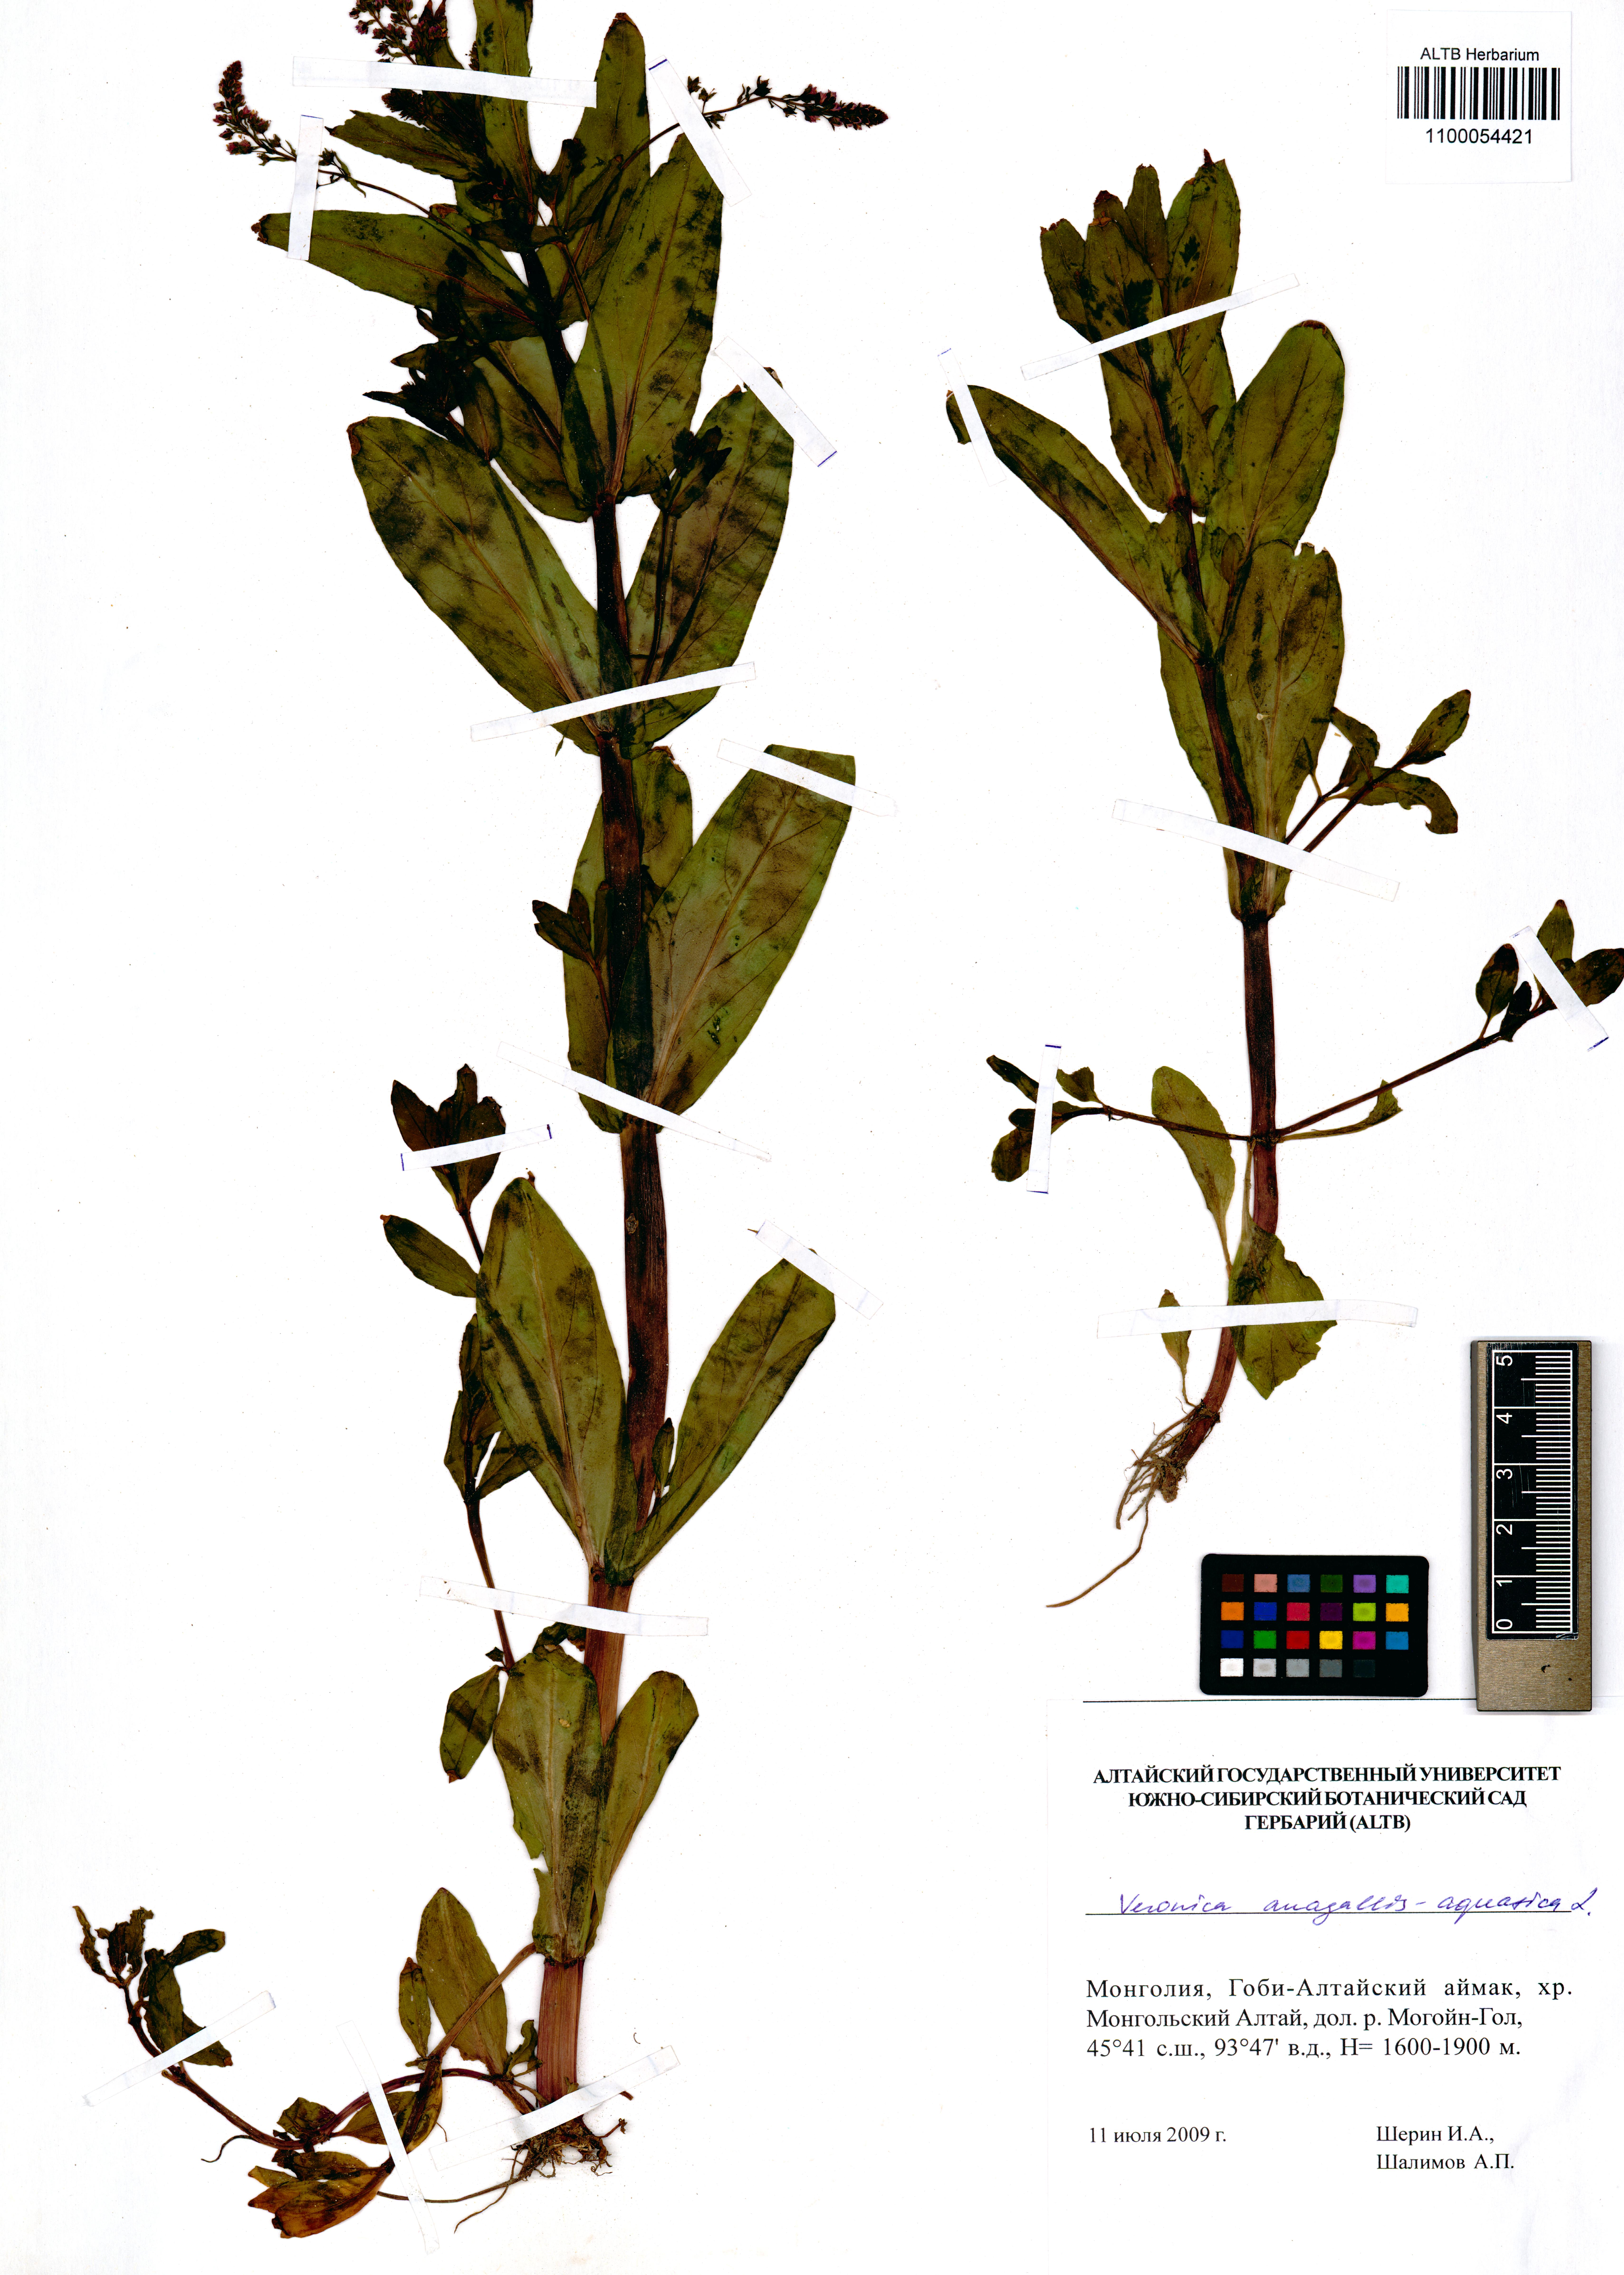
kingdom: Plantae
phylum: Tracheophyta
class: Magnoliopsida
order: Lamiales
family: Plantaginaceae
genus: Veronica
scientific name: Veronica anagallis-aquatica
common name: Water speedwell
